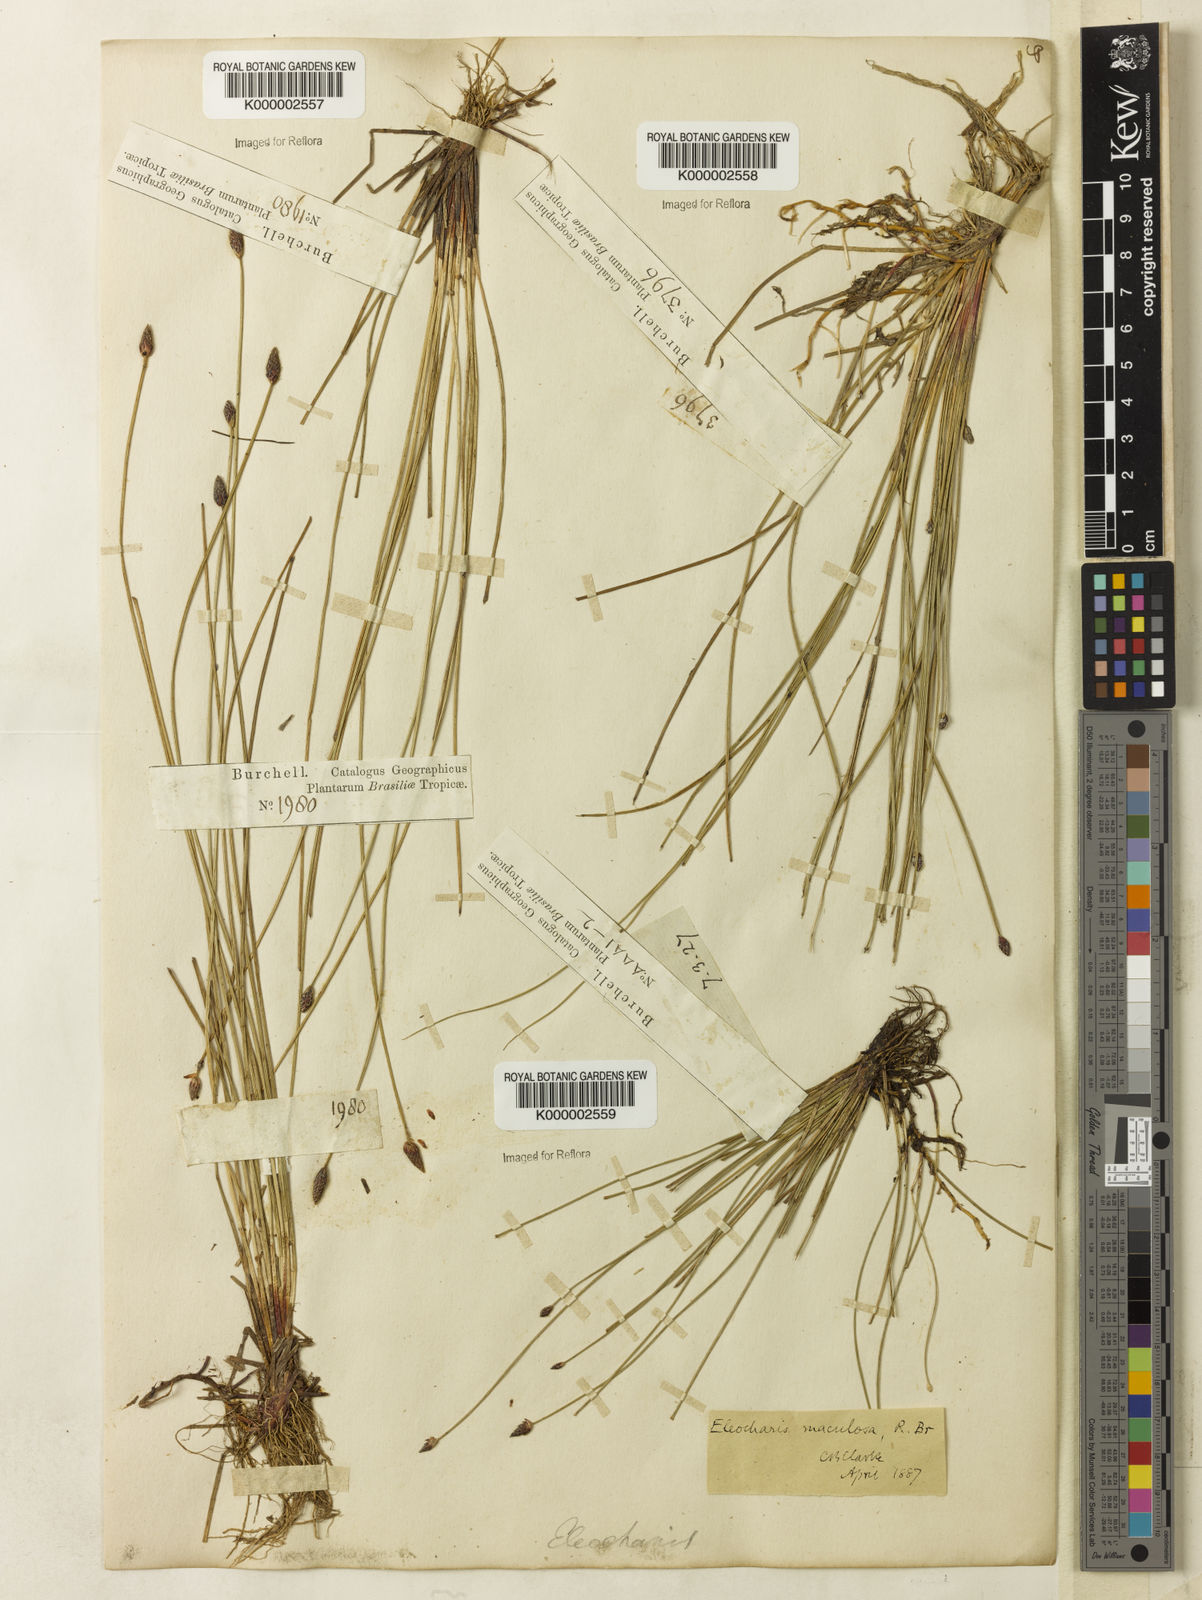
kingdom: Plantae
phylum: Tracheophyta
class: Liliopsida
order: Poales
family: Cyperaceae
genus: Eleocharis
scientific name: Eleocharis maculosa
